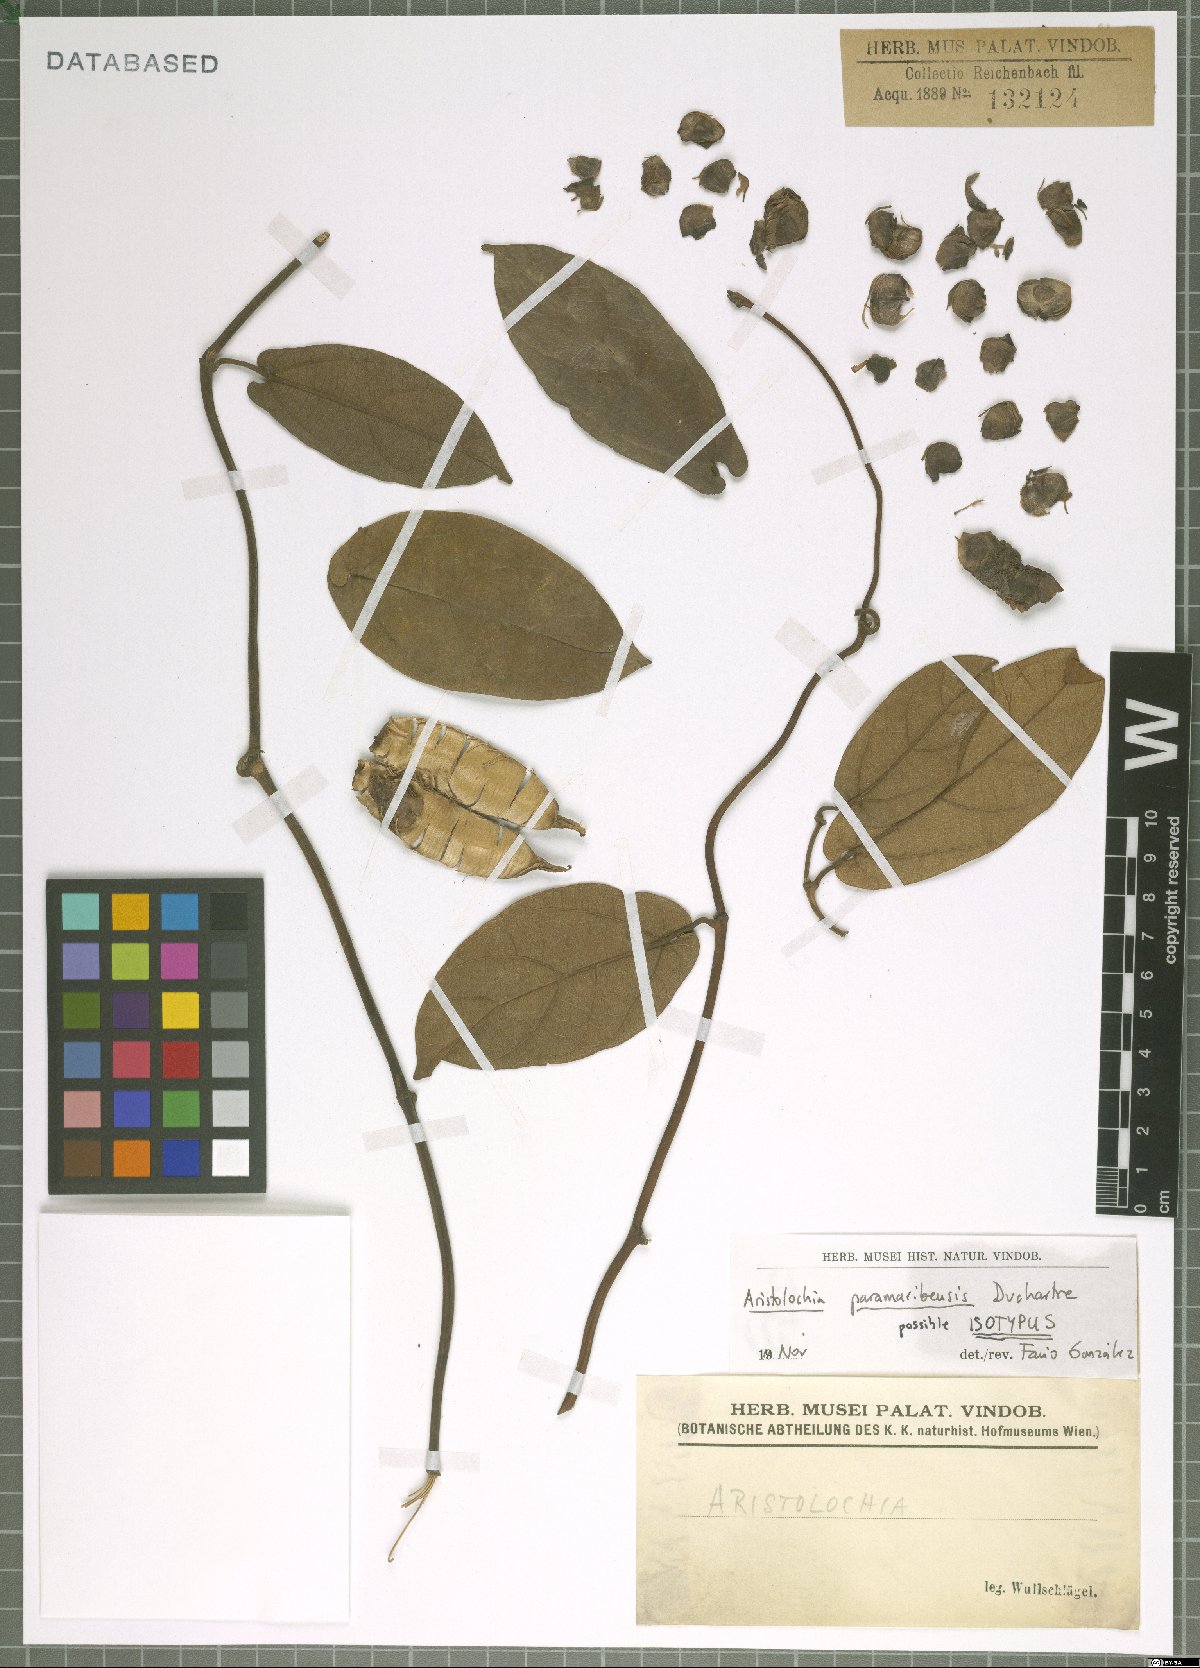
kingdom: Plantae
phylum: Tracheophyta
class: Magnoliopsida
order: Piperales
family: Aristolochiaceae
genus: Aristolochia
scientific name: Aristolochia paramaribensis
